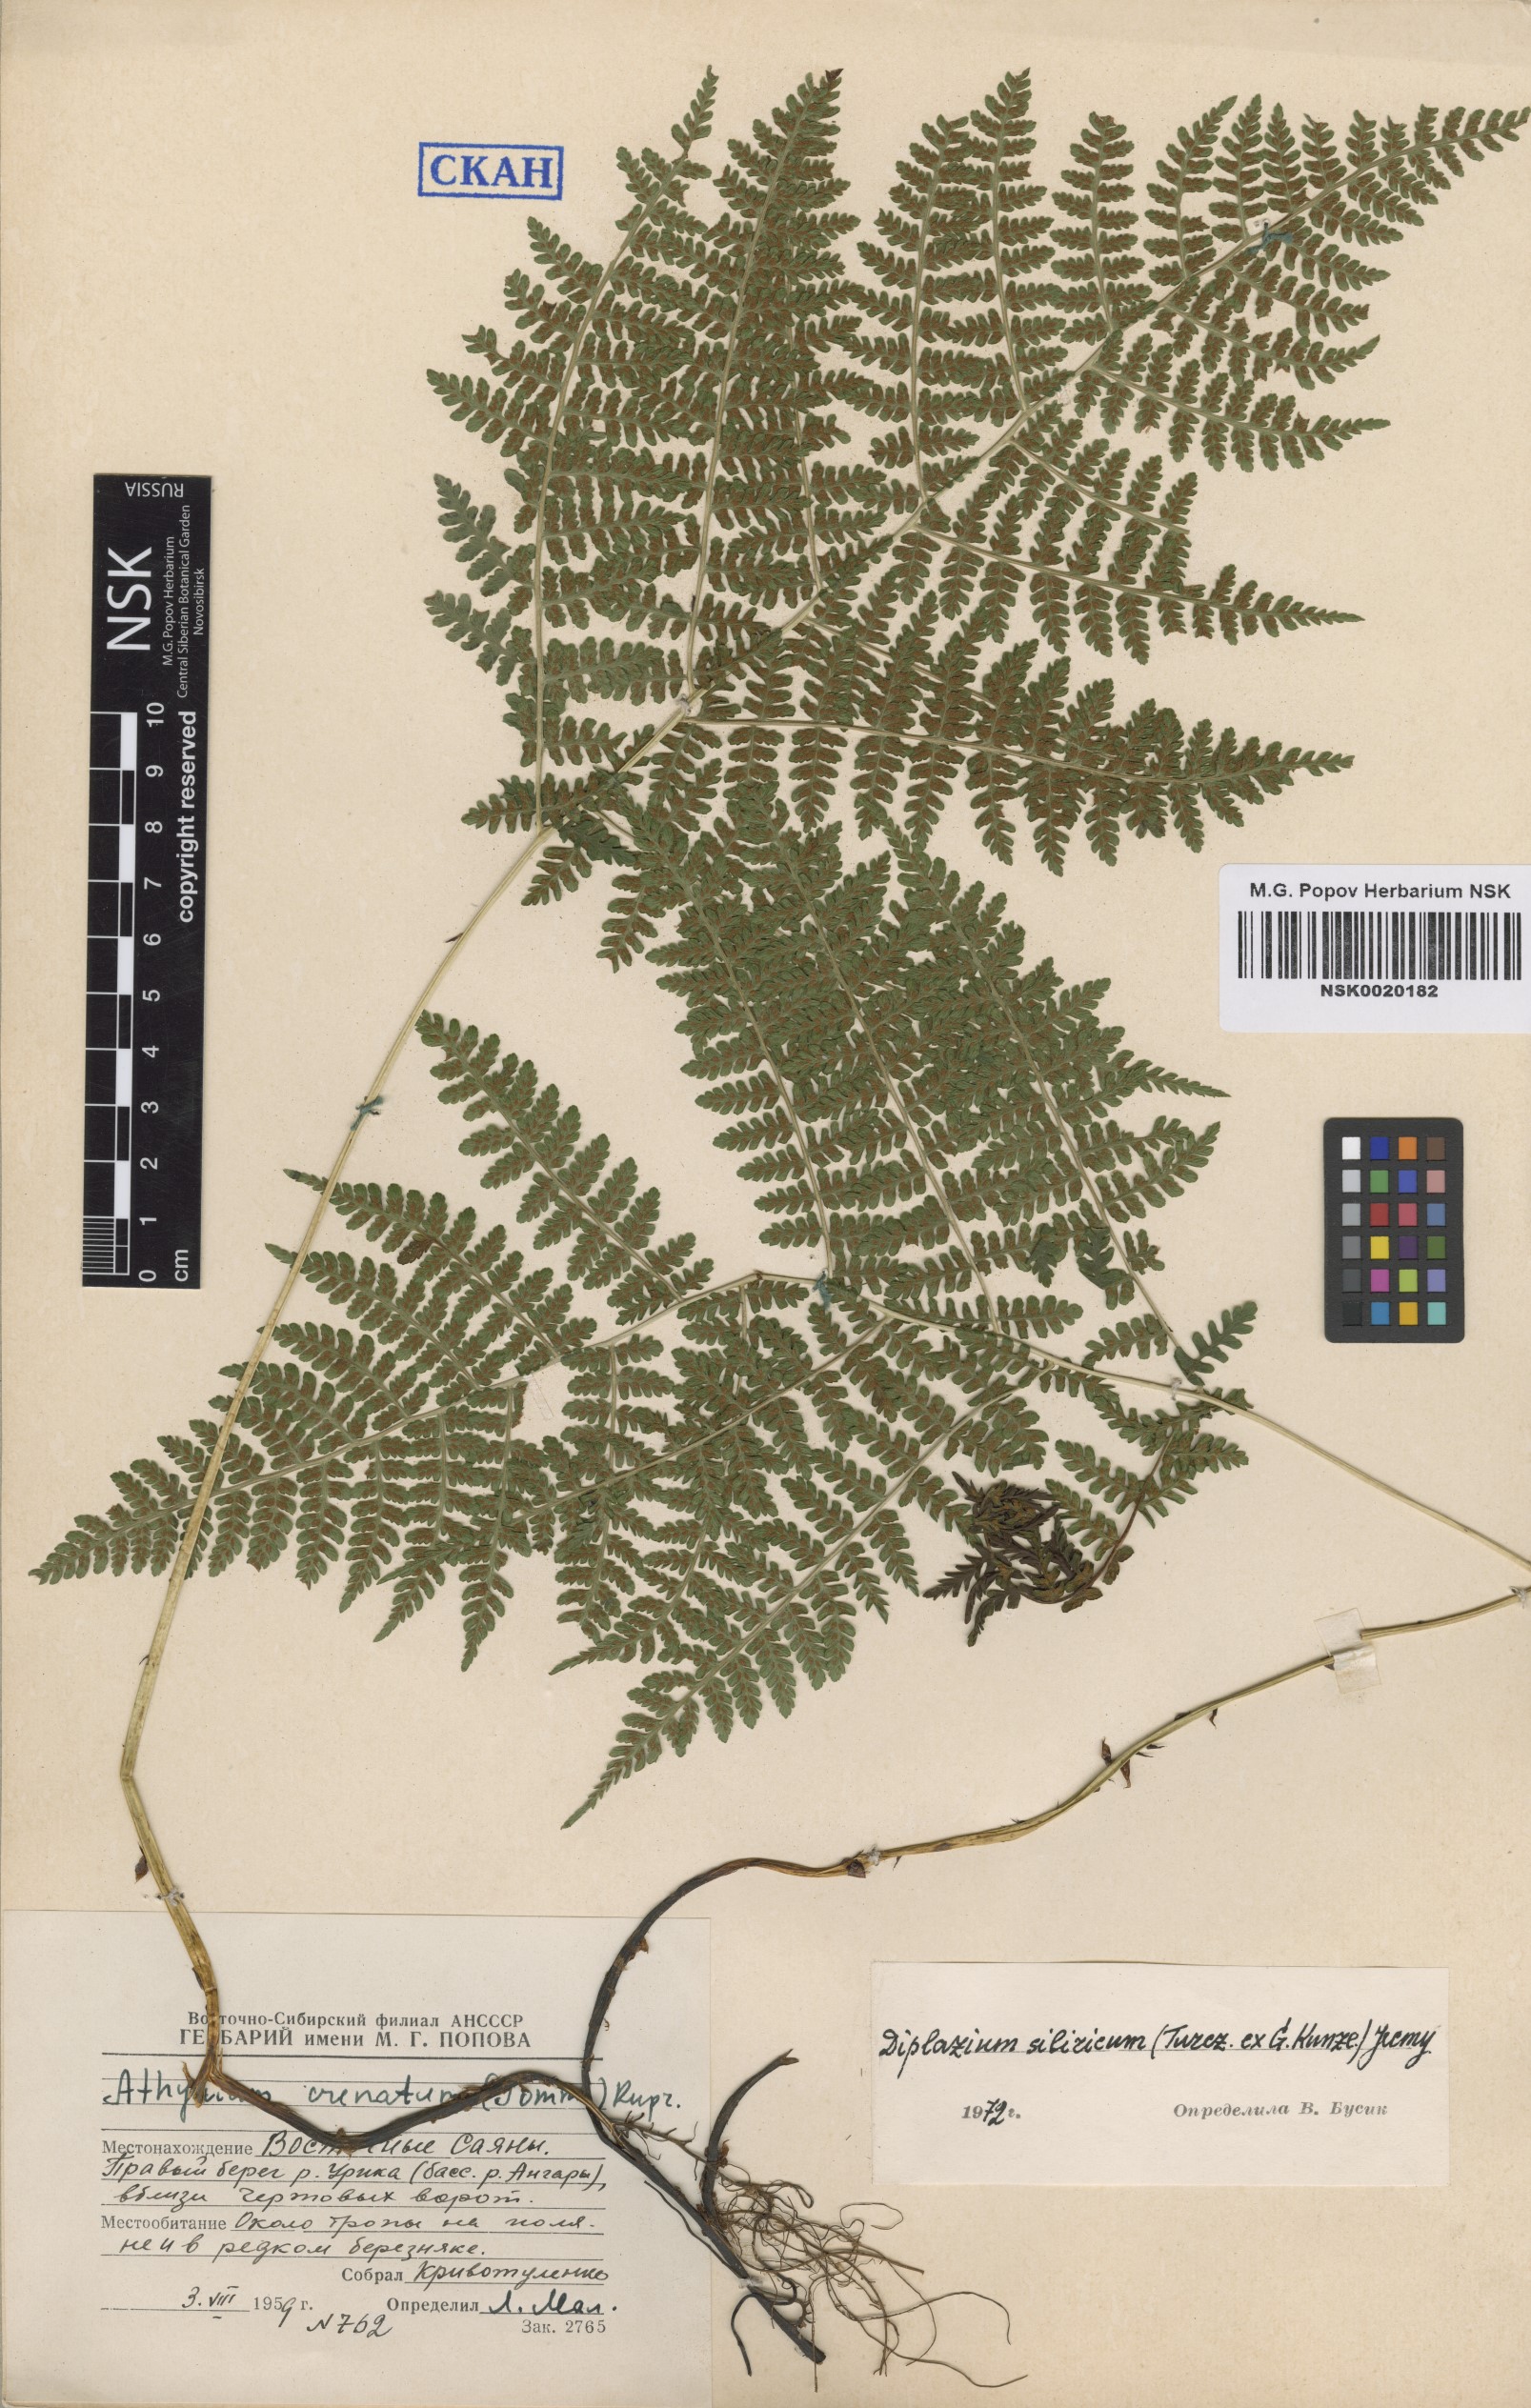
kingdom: Plantae
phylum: Tracheophyta
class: Polypodiopsida
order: Polypodiales
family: Athyriaceae
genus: Diplazium
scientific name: Diplazium sibiricum
